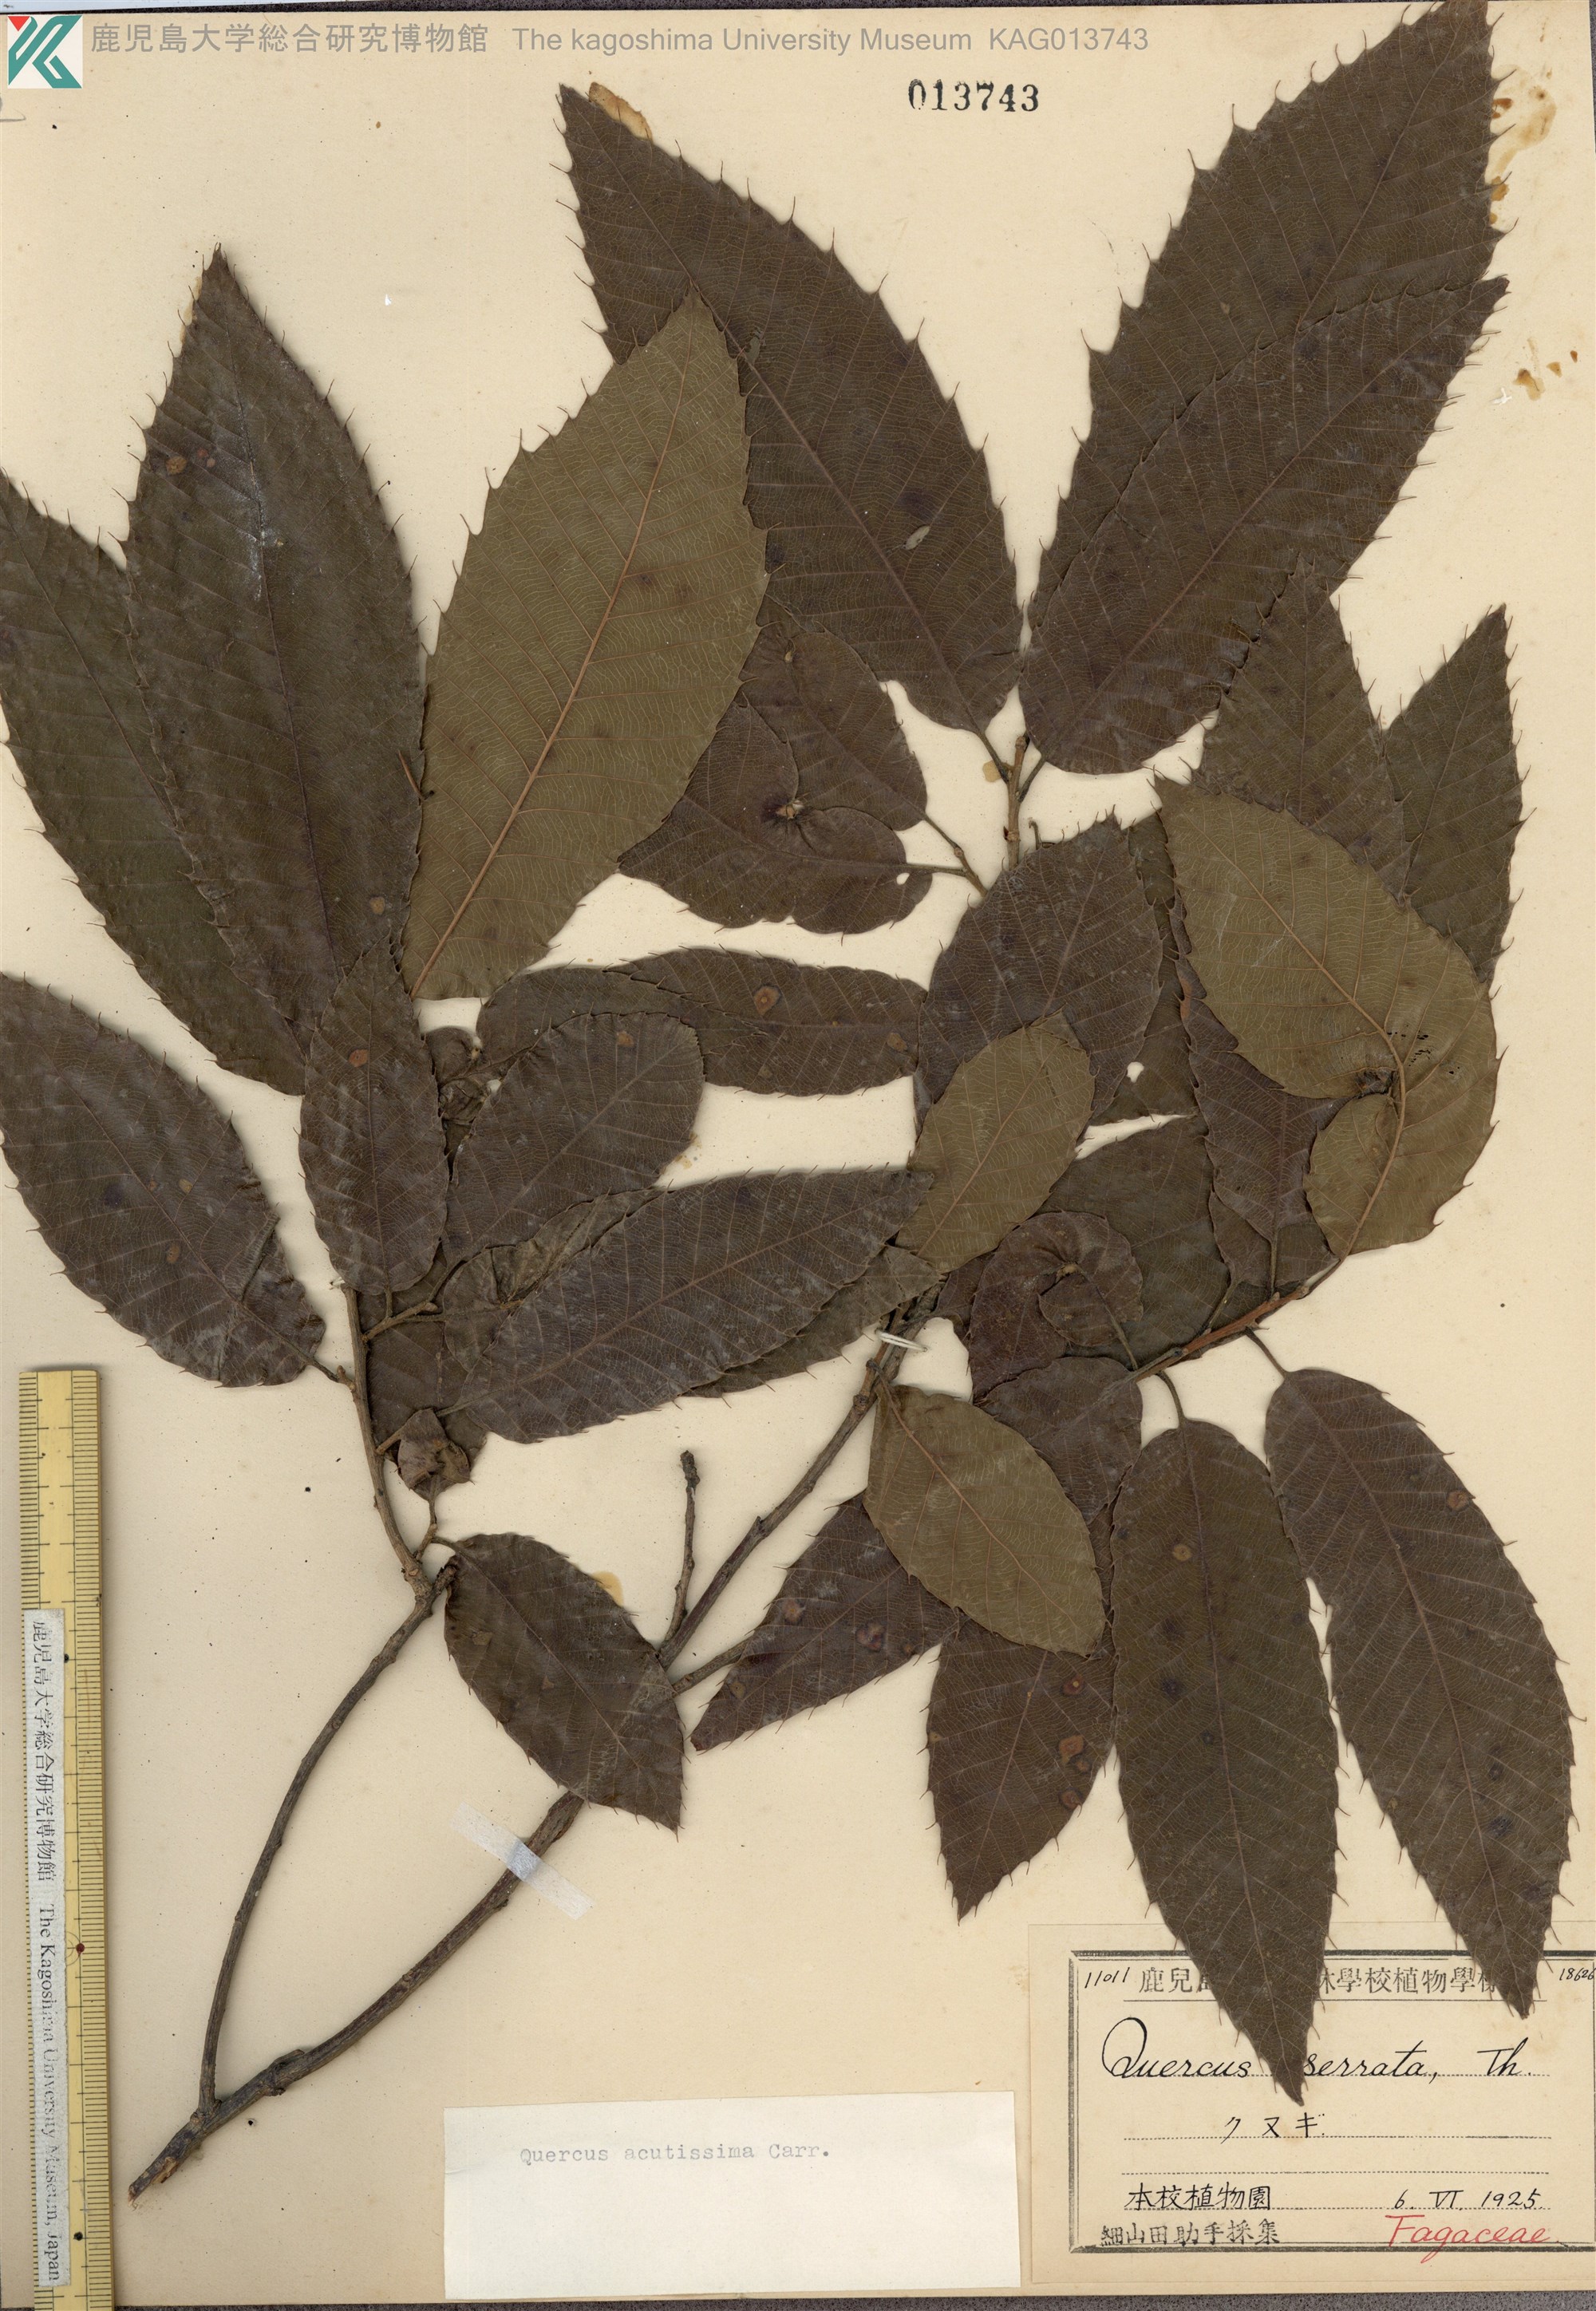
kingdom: Plantae
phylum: Tracheophyta
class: Magnoliopsida
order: Fagales
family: Fagaceae
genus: Quercus
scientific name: Quercus acutissima
